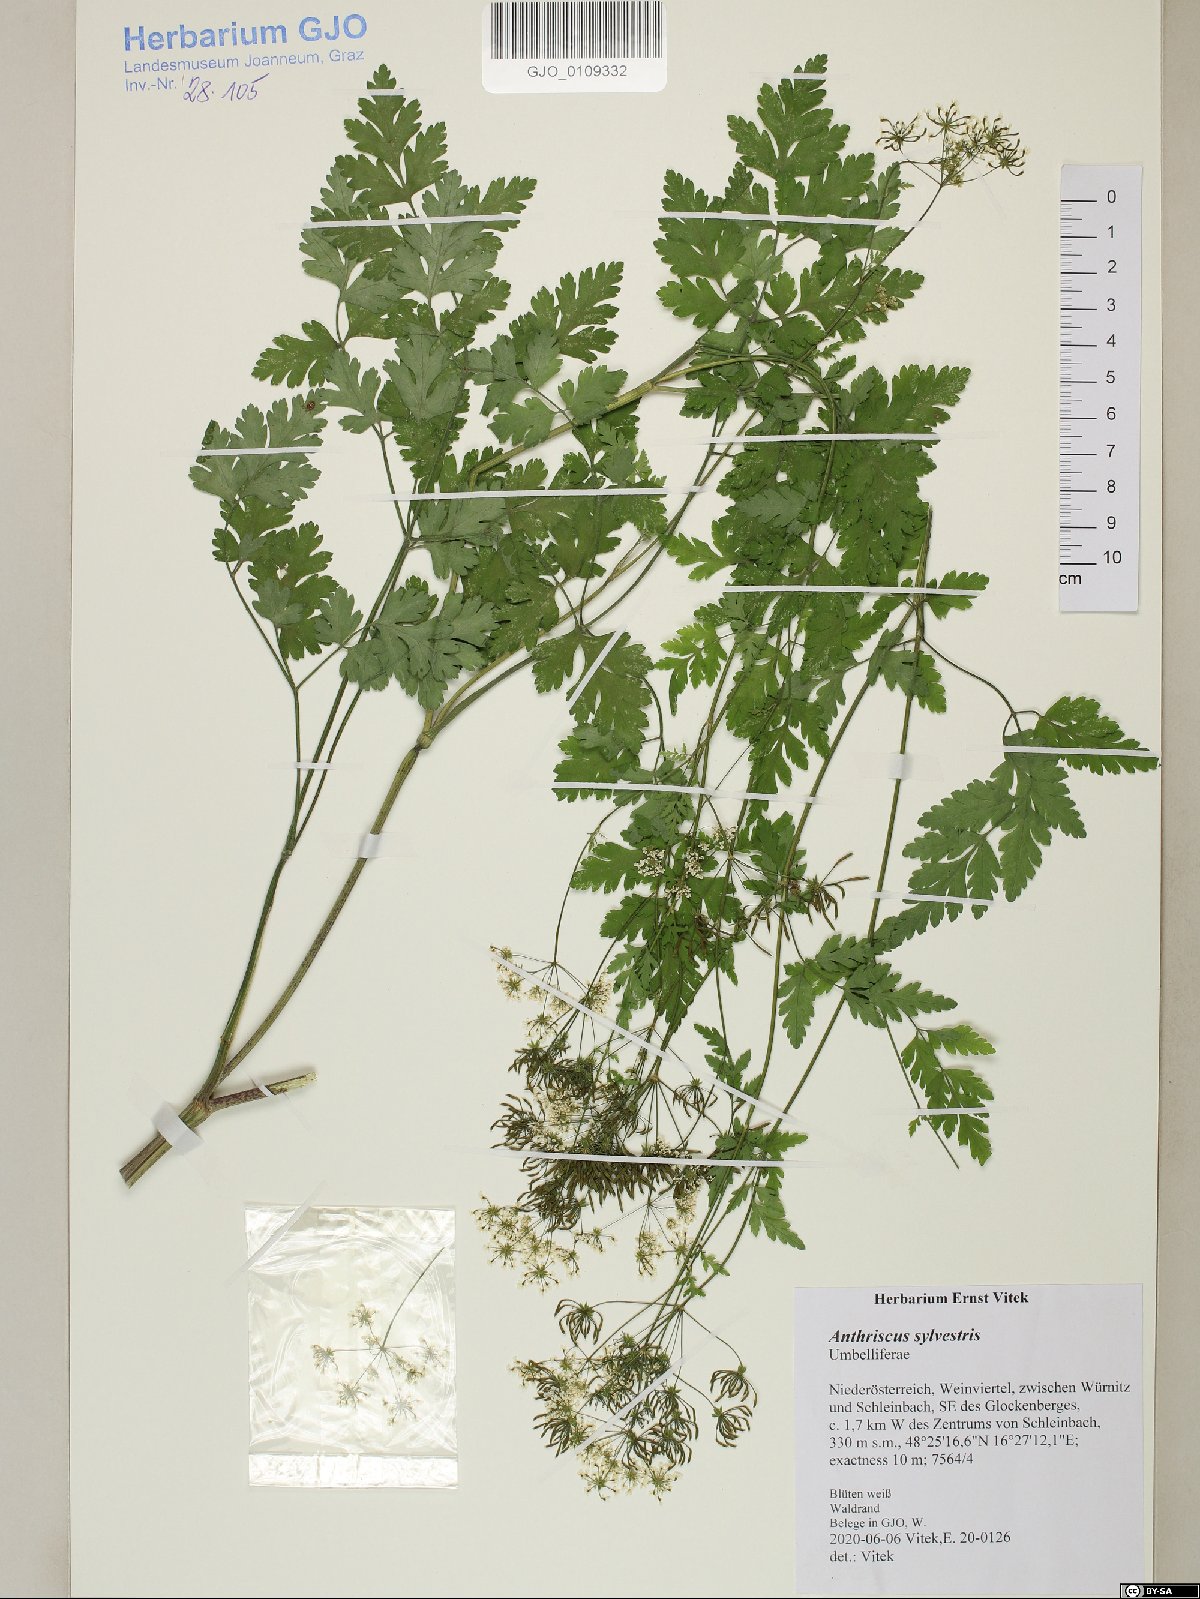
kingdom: Plantae
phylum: Tracheophyta
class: Magnoliopsida
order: Apiales
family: Apiaceae
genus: Anthriscus
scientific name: Anthriscus sylvestris
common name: Cow parsley
